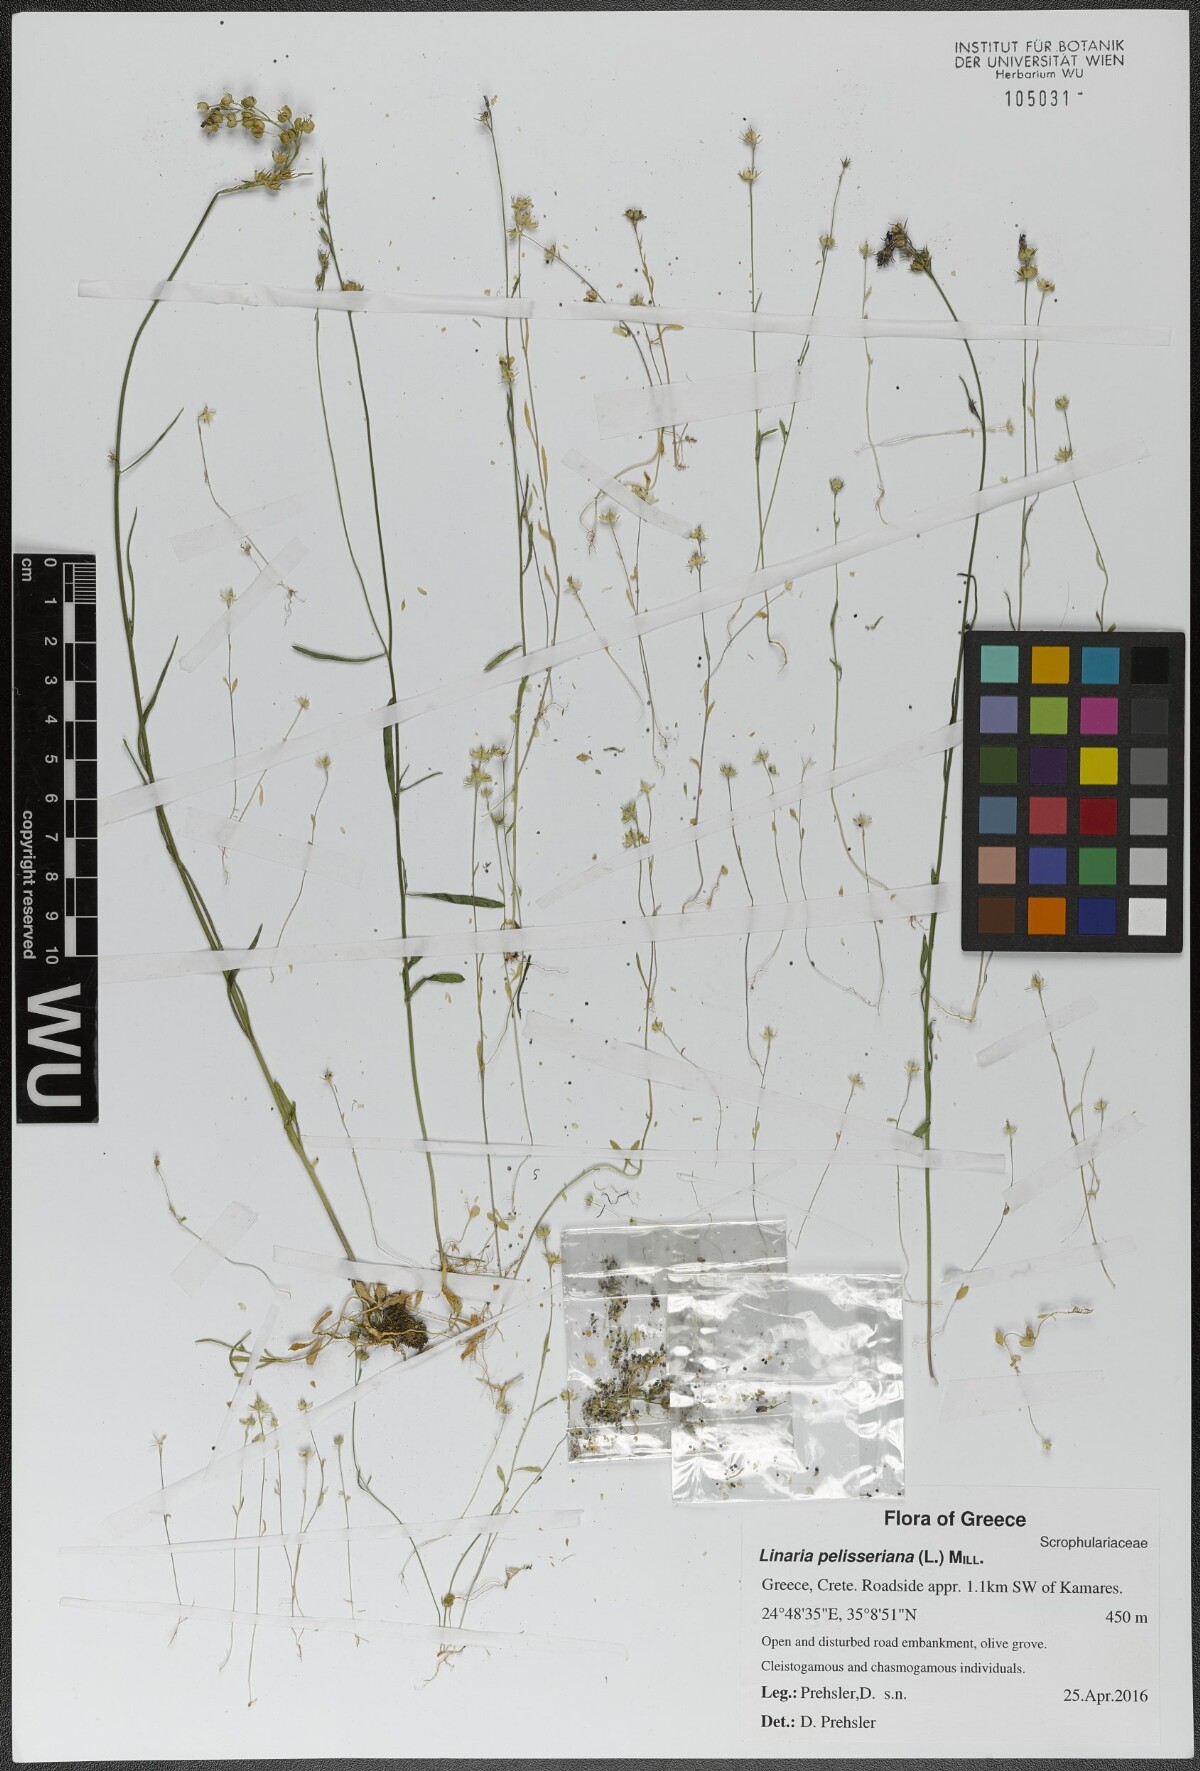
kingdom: Plantae
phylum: Tracheophyta
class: Magnoliopsida
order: Lamiales
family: Plantaginaceae
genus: Linaria
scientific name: Linaria pelisseriana
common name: Jersey toadflax
